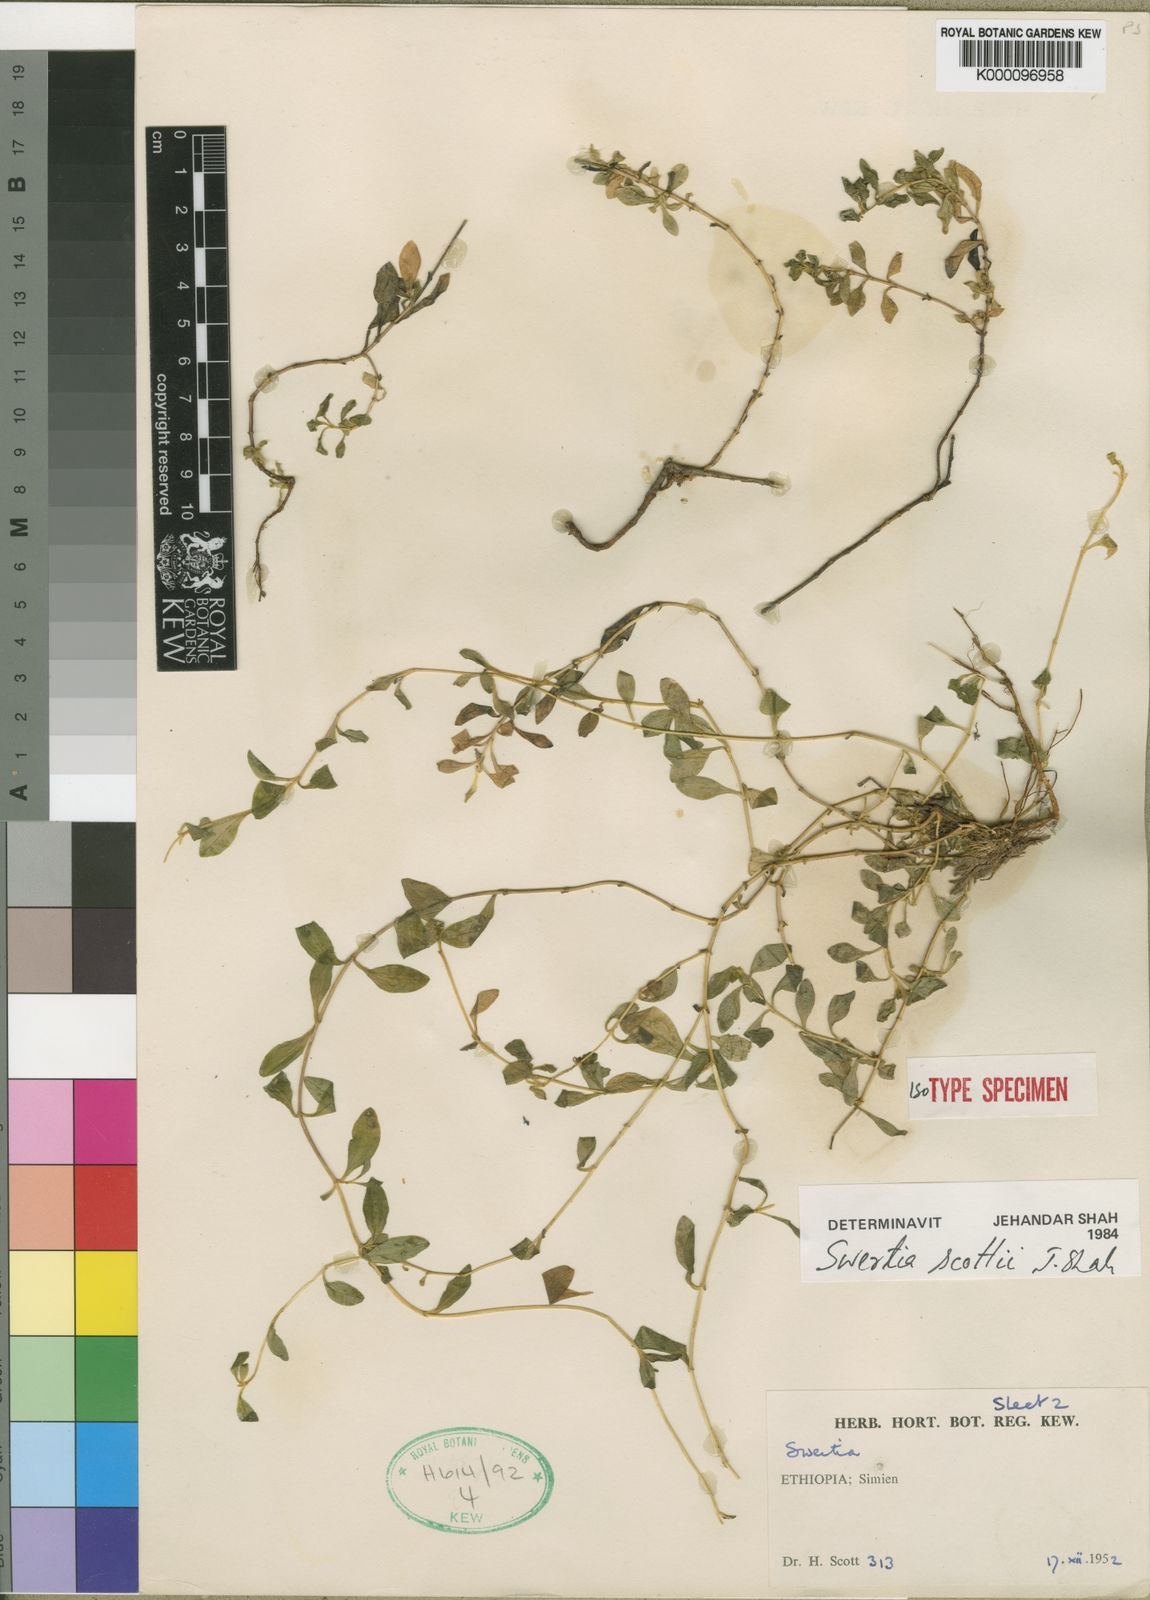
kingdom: Plantae
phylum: Tracheophyta
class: Magnoliopsida
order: Gentianales
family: Gentianaceae
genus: Swertia
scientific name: Swertia scottii
